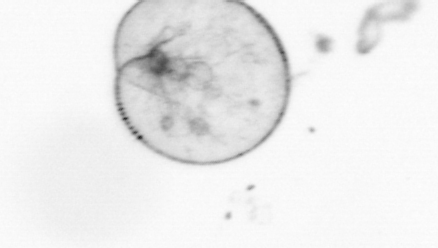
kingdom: Chromista
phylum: Myzozoa
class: Dinophyceae
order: Noctilucales
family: Noctilucaceae
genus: Noctiluca
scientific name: Noctiluca scintillans
